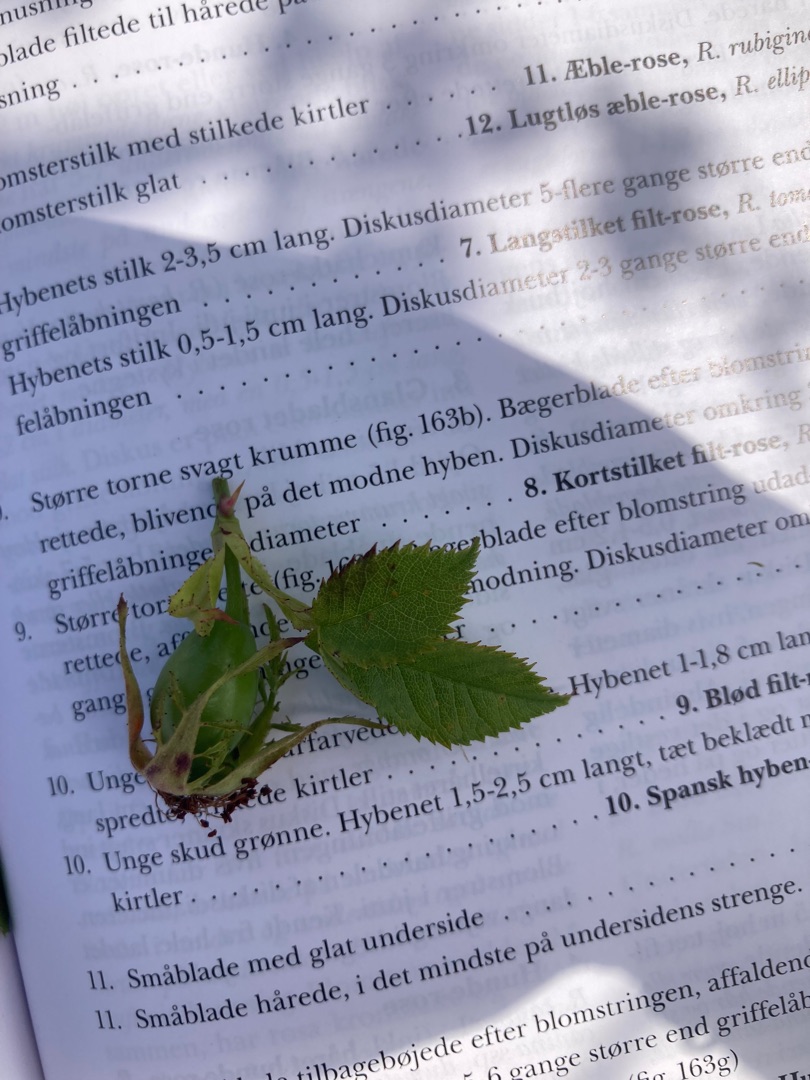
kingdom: Plantae
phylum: Tracheophyta
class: Magnoliopsida
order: Rosales
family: Rosaceae
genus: Rosa
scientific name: Rosa canina
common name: Hunde-rose
